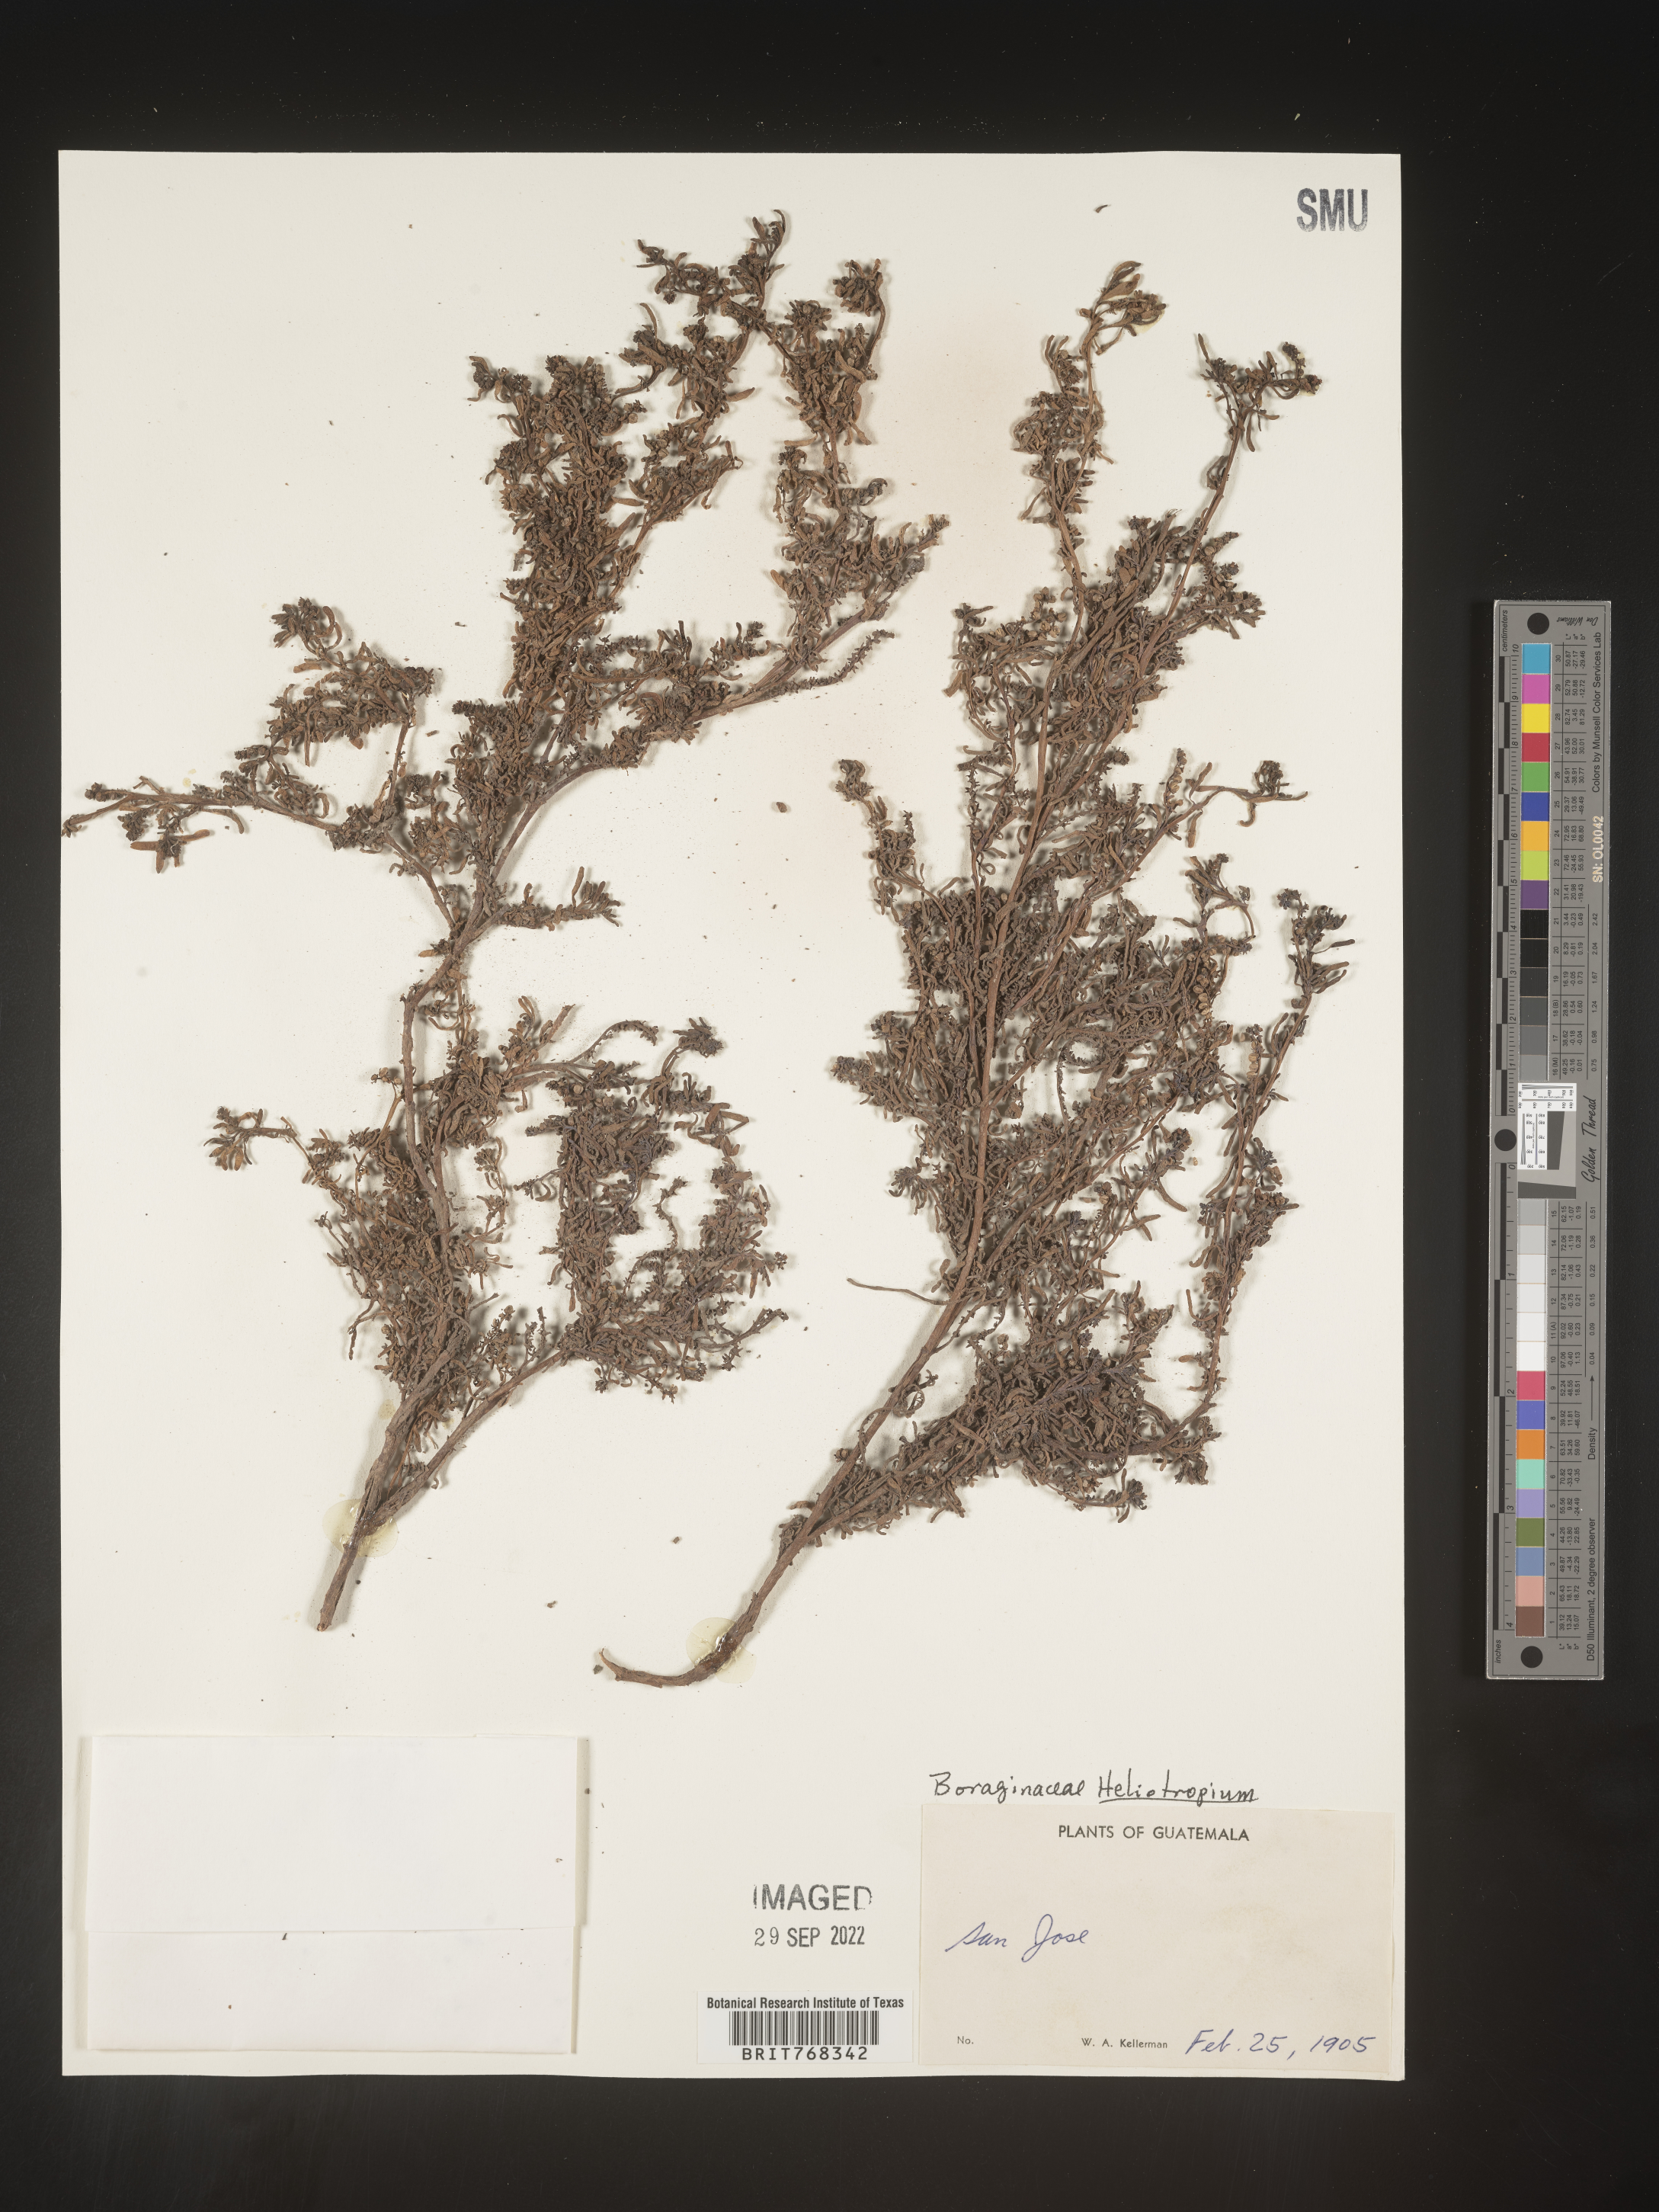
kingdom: Plantae
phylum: Tracheophyta
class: Magnoliopsida
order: Boraginales
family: Heliotropiaceae
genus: Heliotropium
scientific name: Heliotropium
